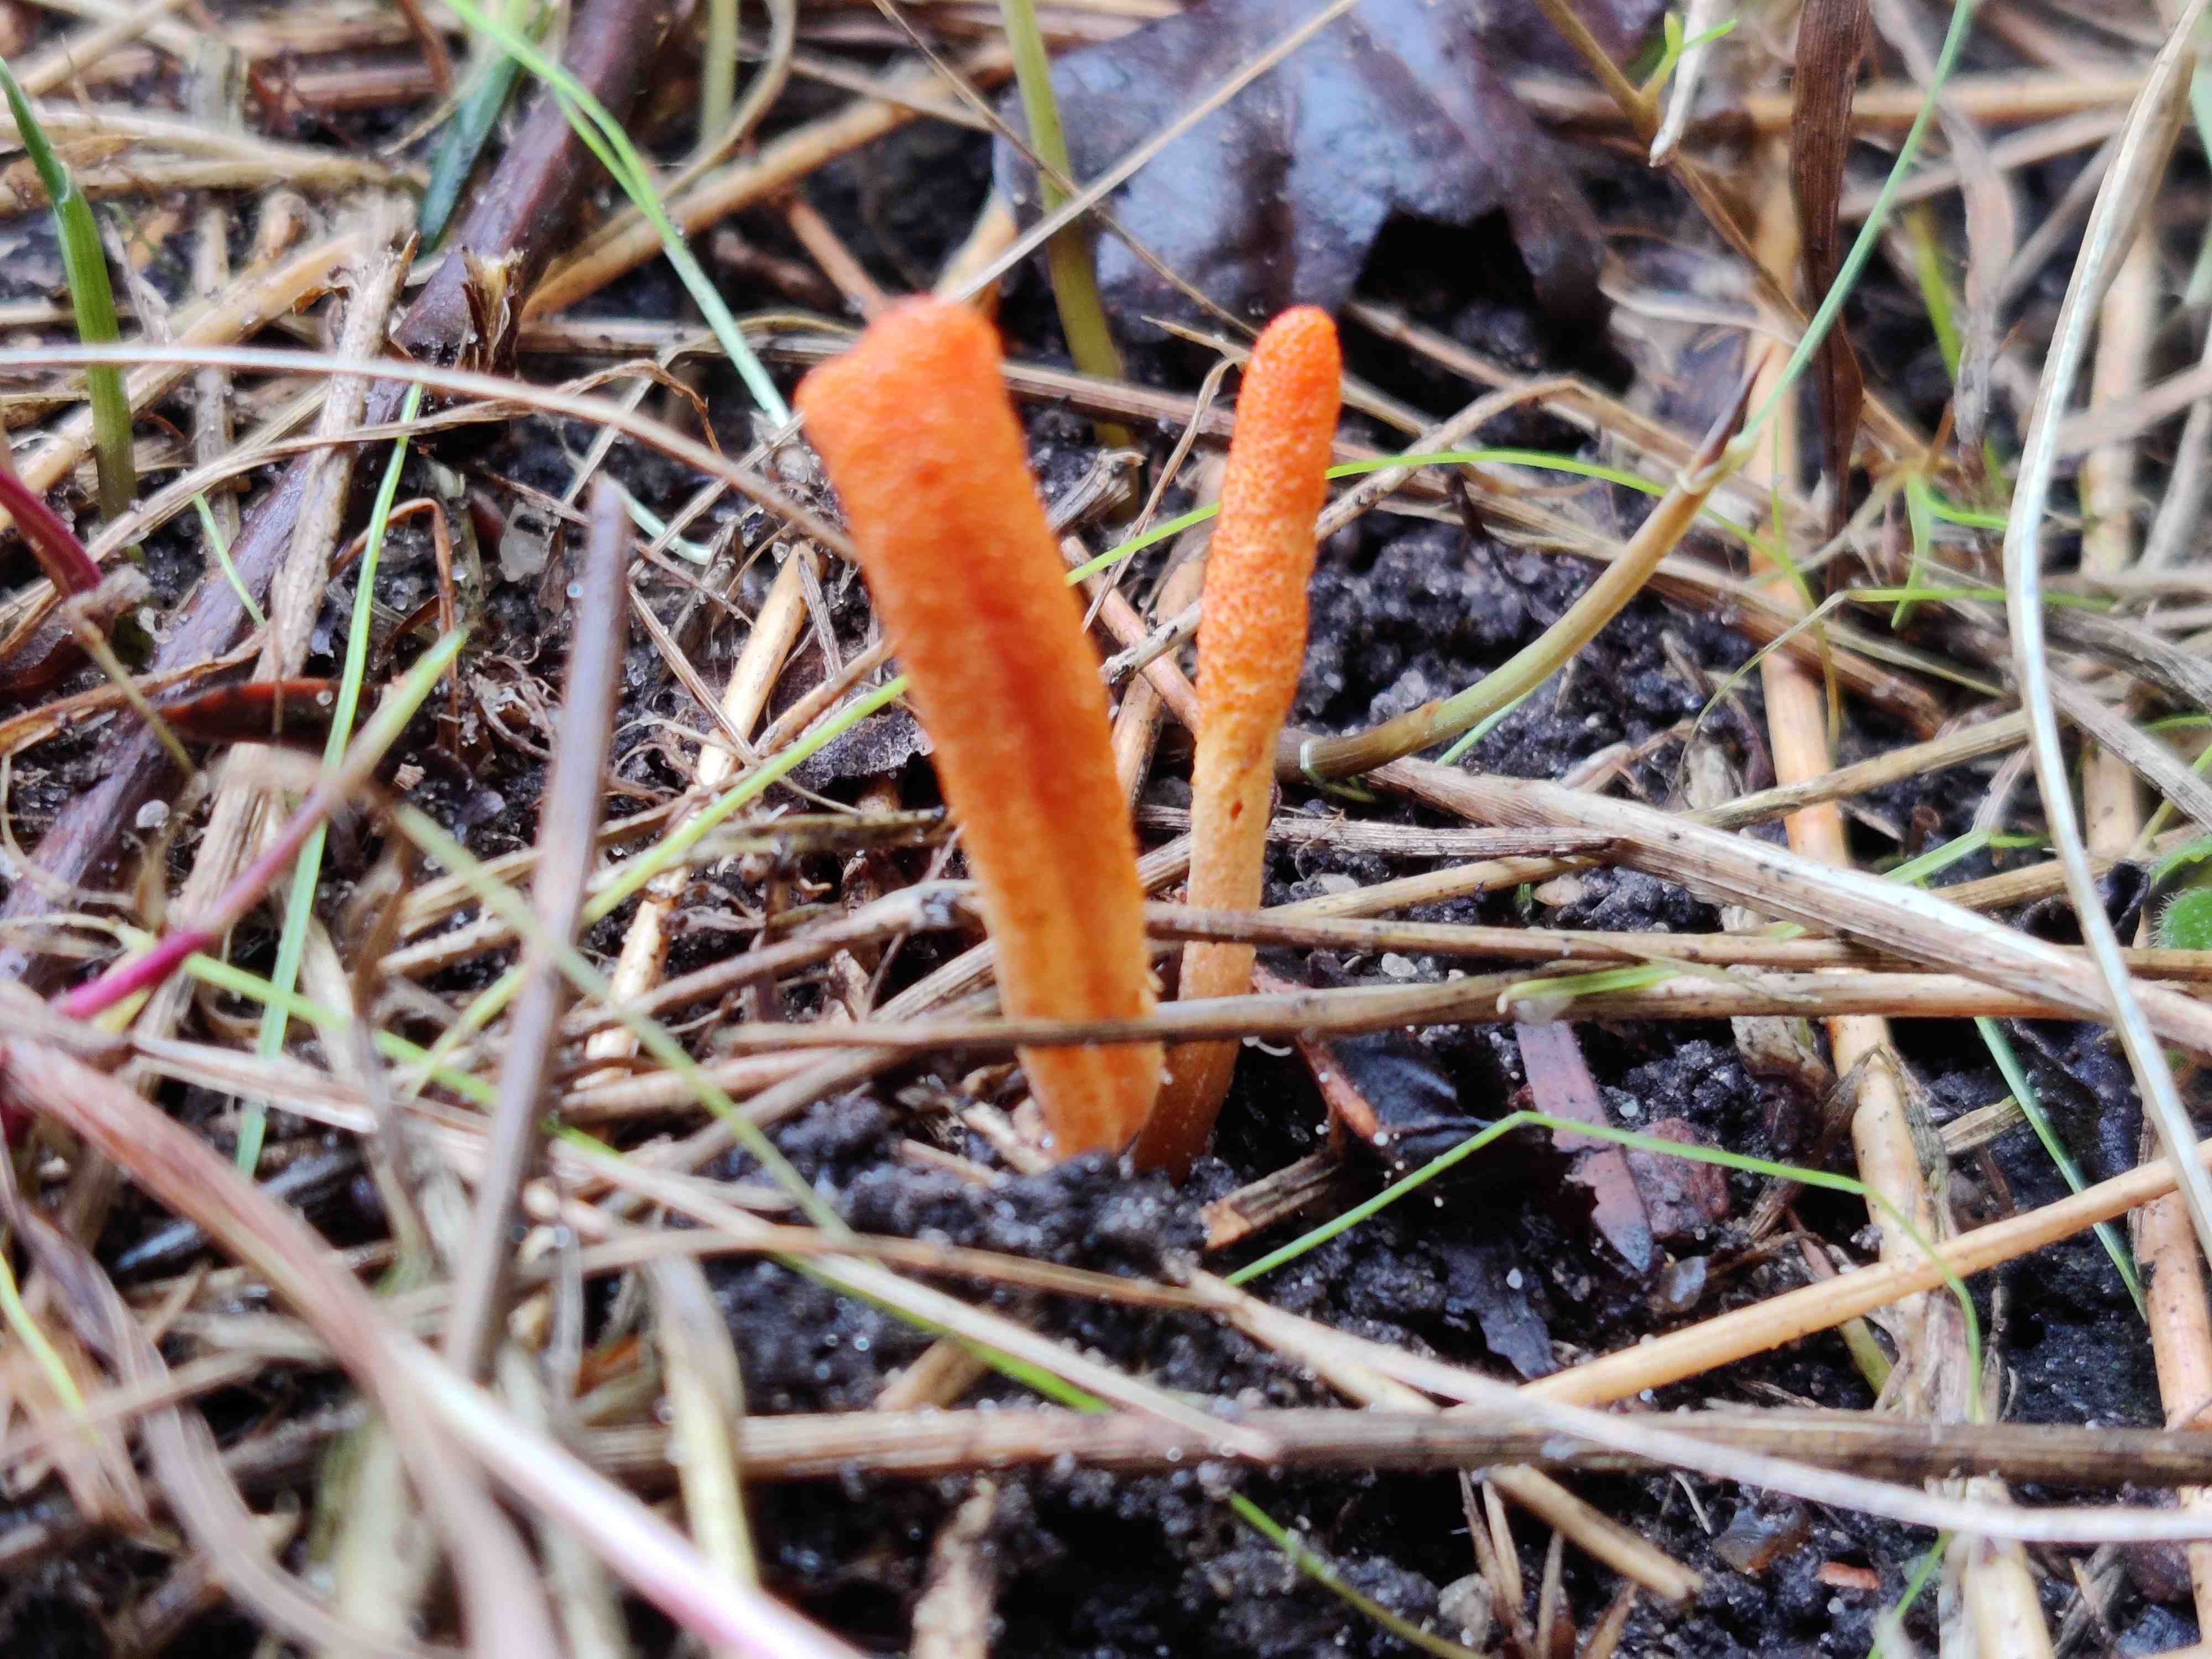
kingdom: Fungi
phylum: Ascomycota
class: Sordariomycetes
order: Hypocreales
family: Cordycipitaceae
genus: Cordyceps
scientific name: Cordyceps militaris
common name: puppe-snyltekølle
